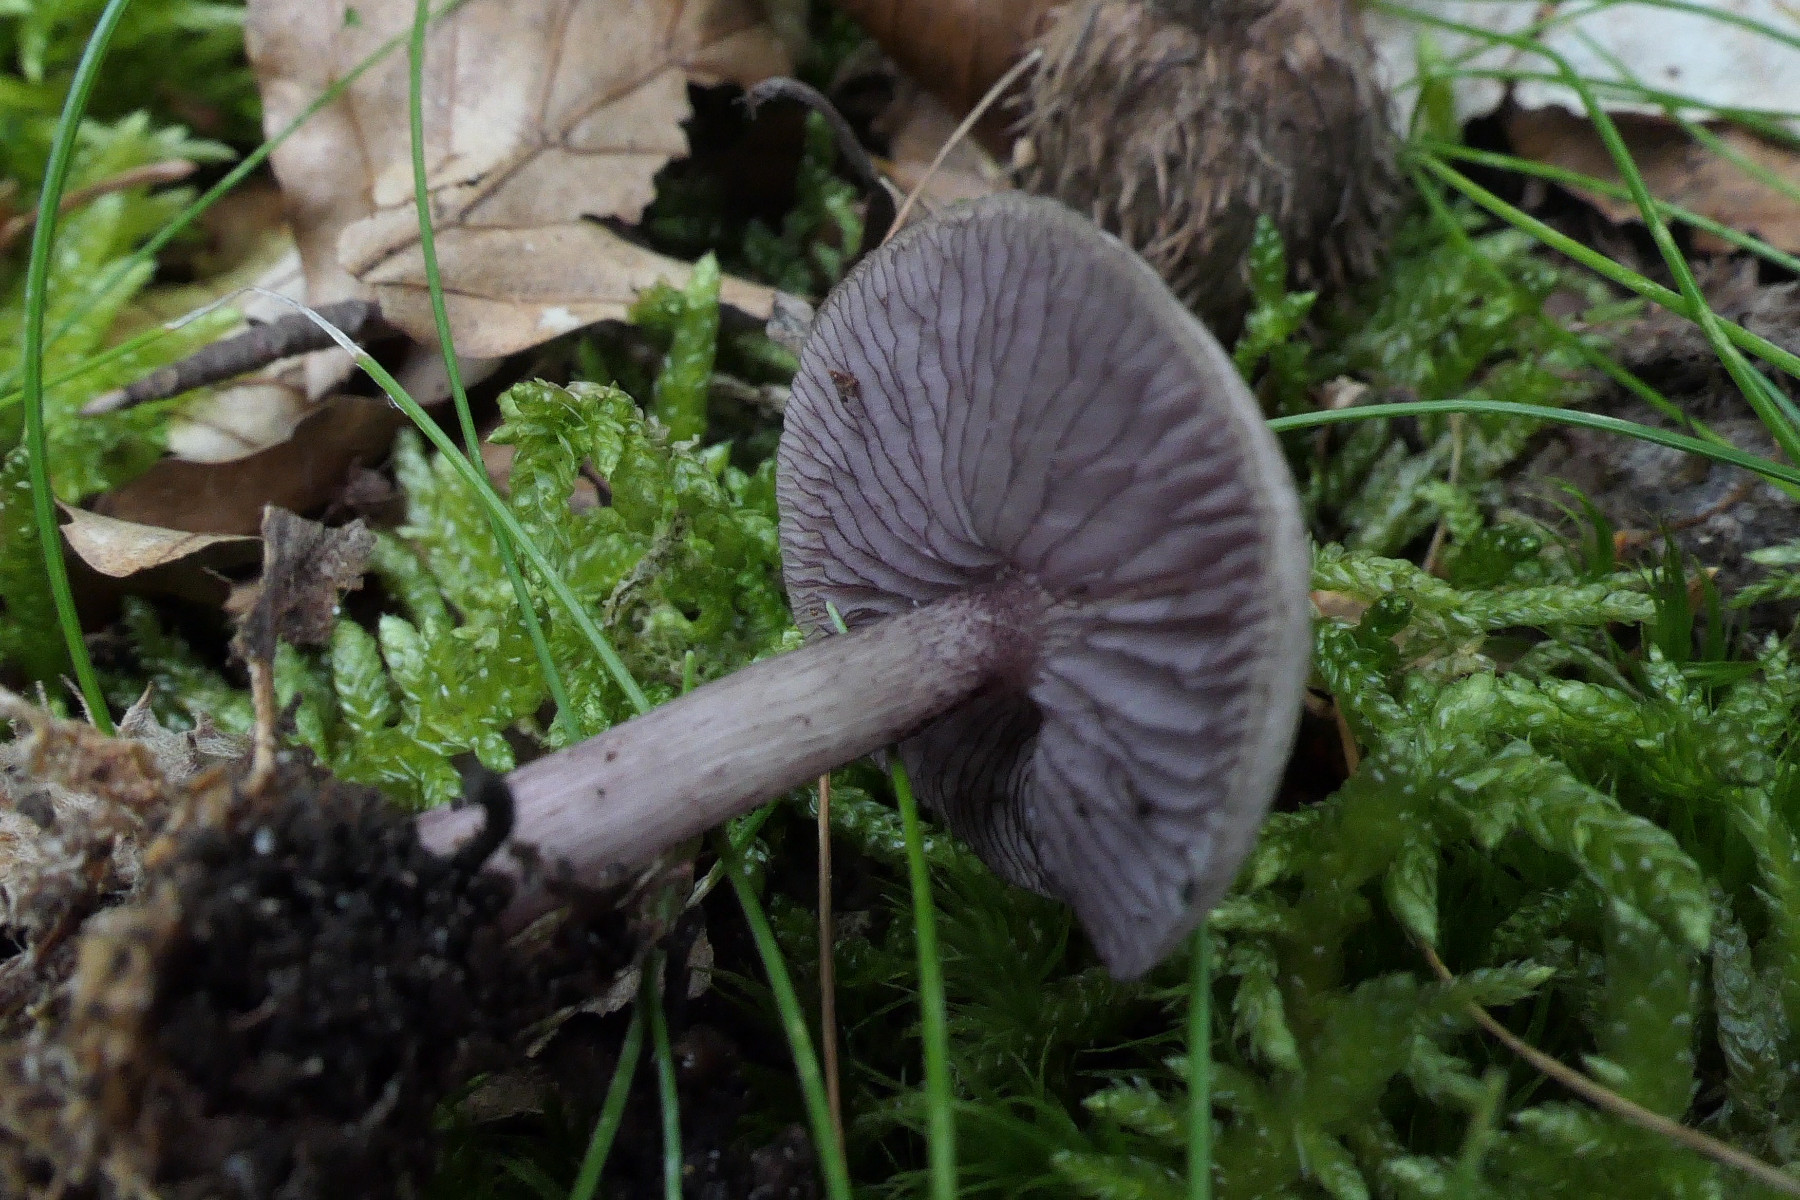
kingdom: Fungi
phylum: Basidiomycota
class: Agaricomycetes
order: Agaricales
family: Mycenaceae
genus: Mycena
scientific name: Mycena pelianthina
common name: mørkbladet huesvamp
